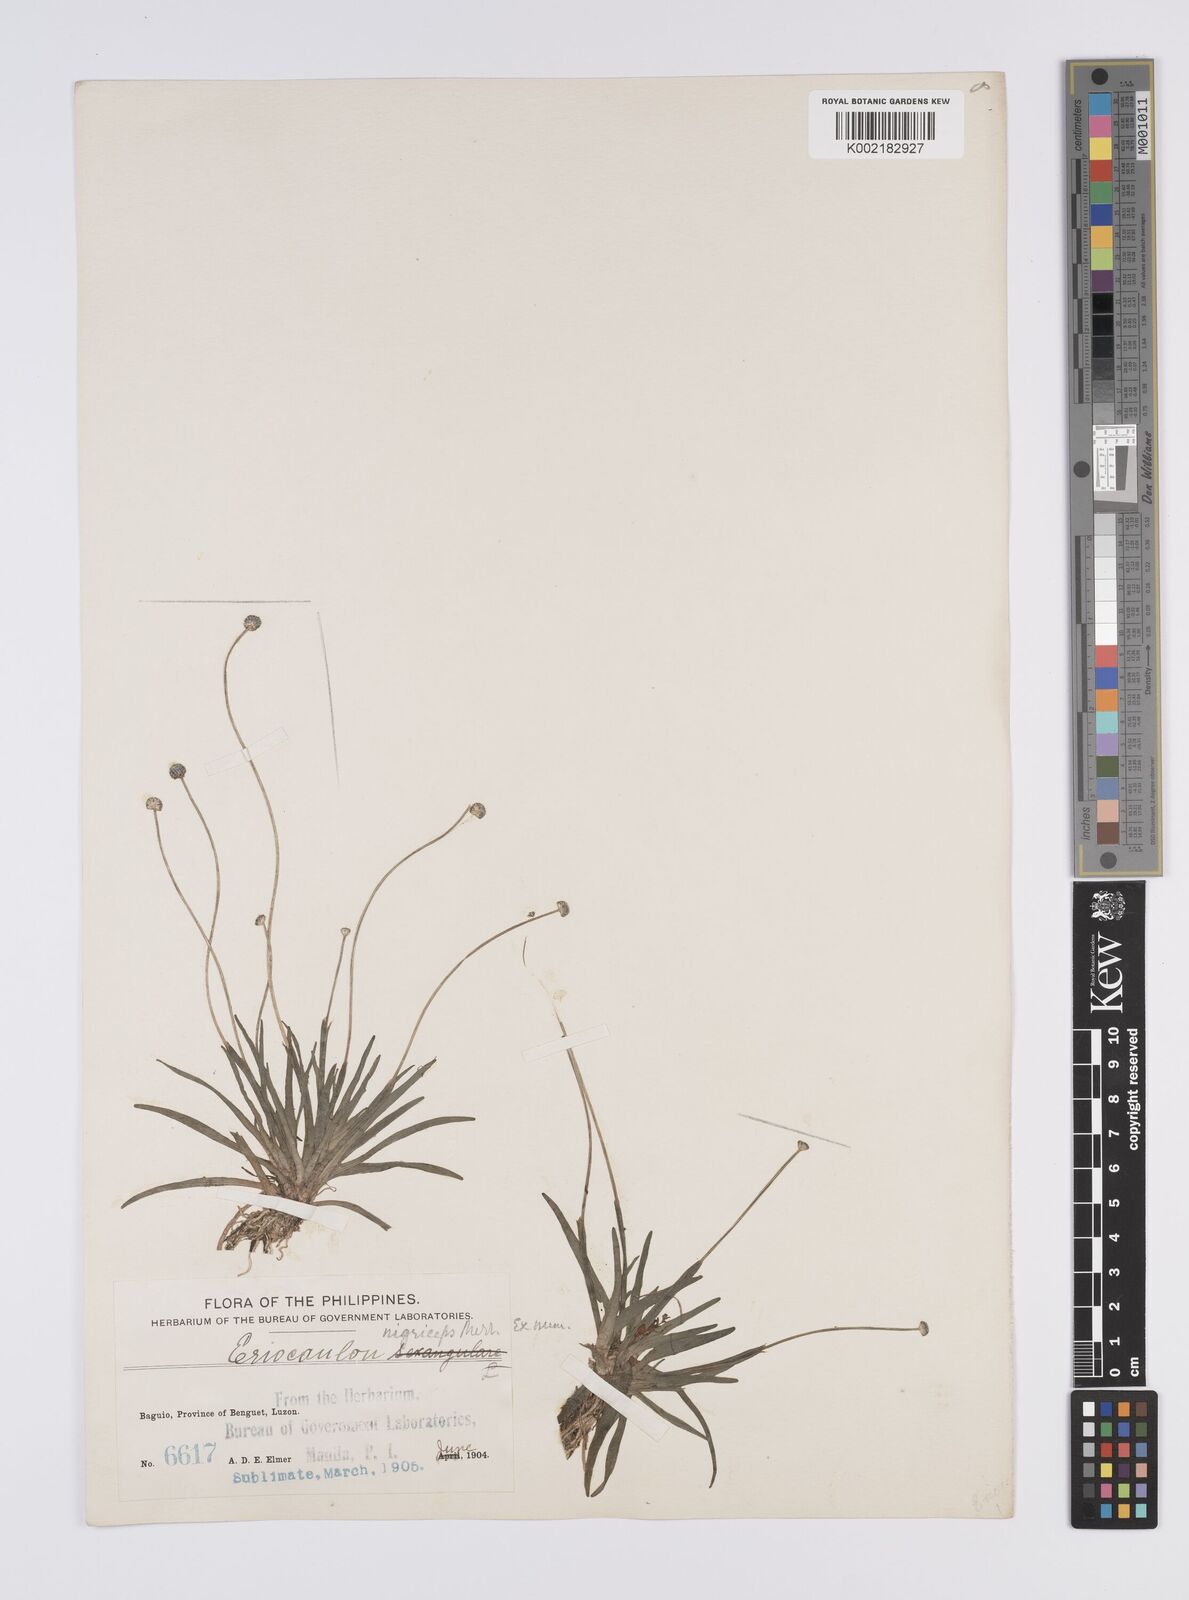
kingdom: Plantae
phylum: Tracheophyta
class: Liliopsida
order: Poales
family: Eriocaulaceae
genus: Eriocaulon
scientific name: Eriocaulon nigriceps
